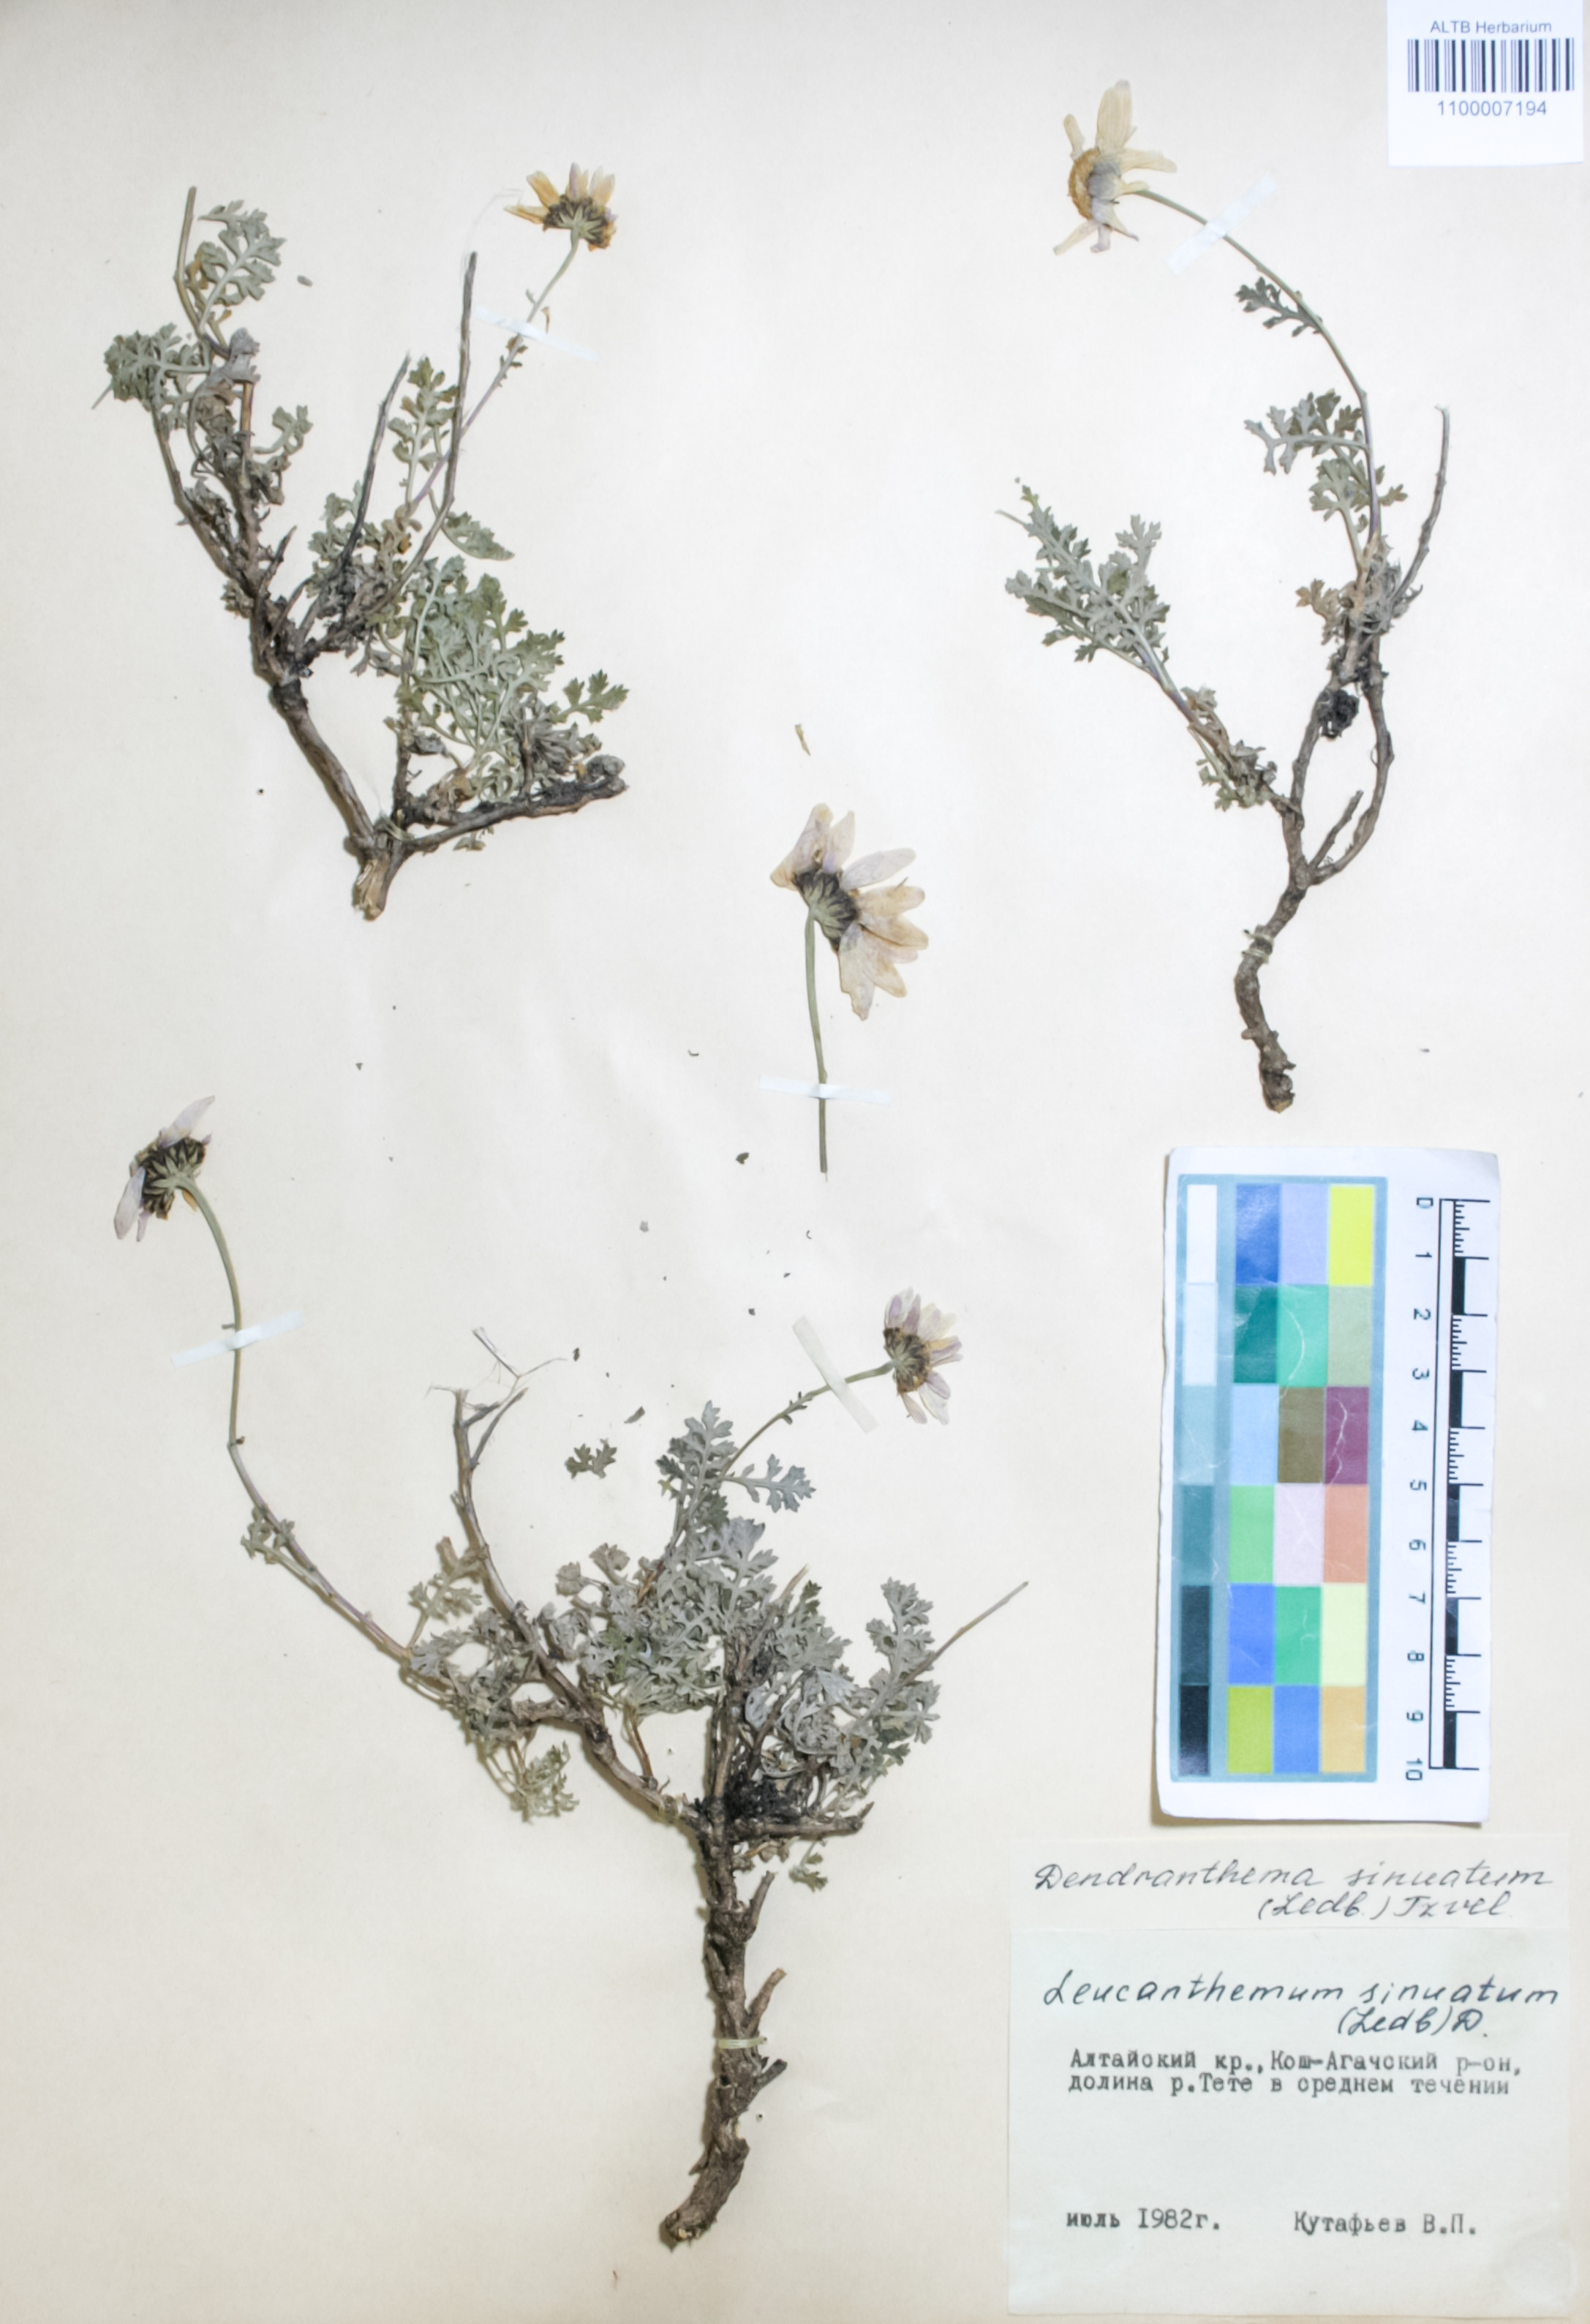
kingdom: Plantae
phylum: Tracheophyta
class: Magnoliopsida
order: Asterales
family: Asteraceae
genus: Chrysanthemum
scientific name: Chrysanthemum sinuatum
